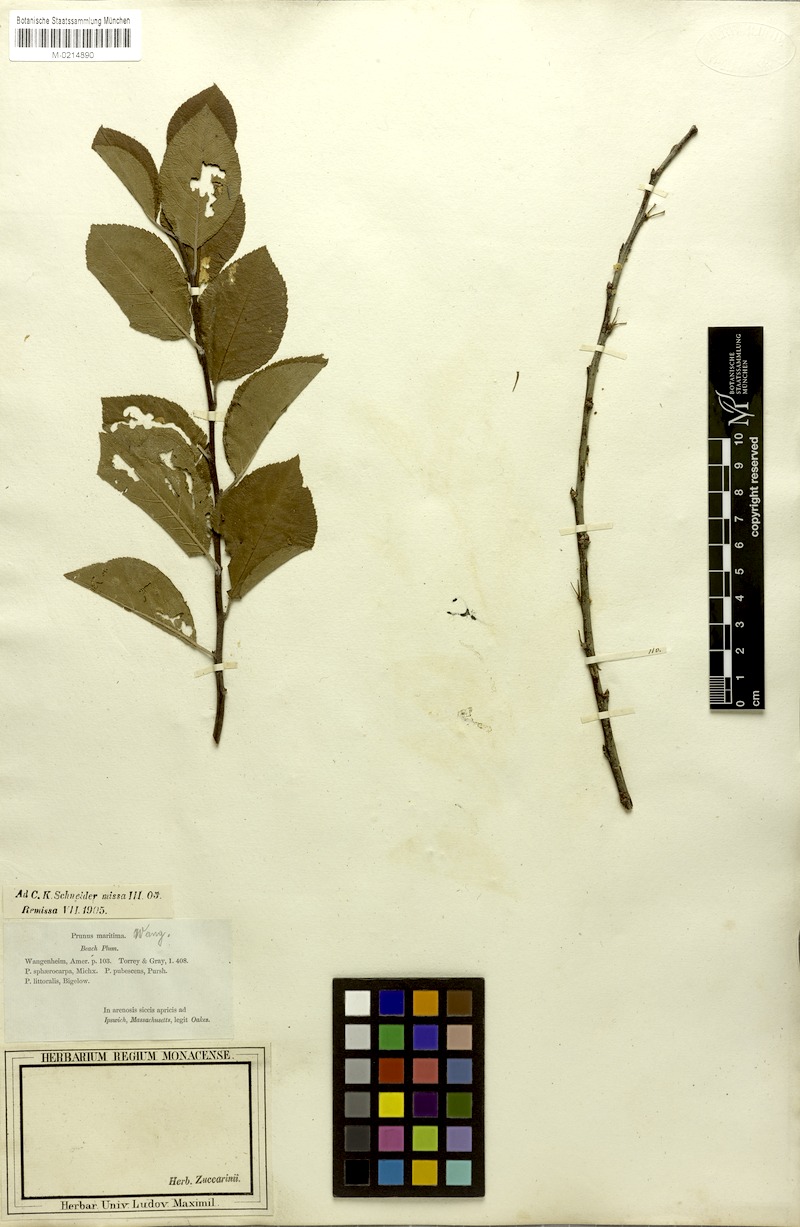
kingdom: Plantae
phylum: Tracheophyta
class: Magnoliopsida
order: Rosales
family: Rosaceae
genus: Prunus
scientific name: Prunus maritima
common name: Beach plum
